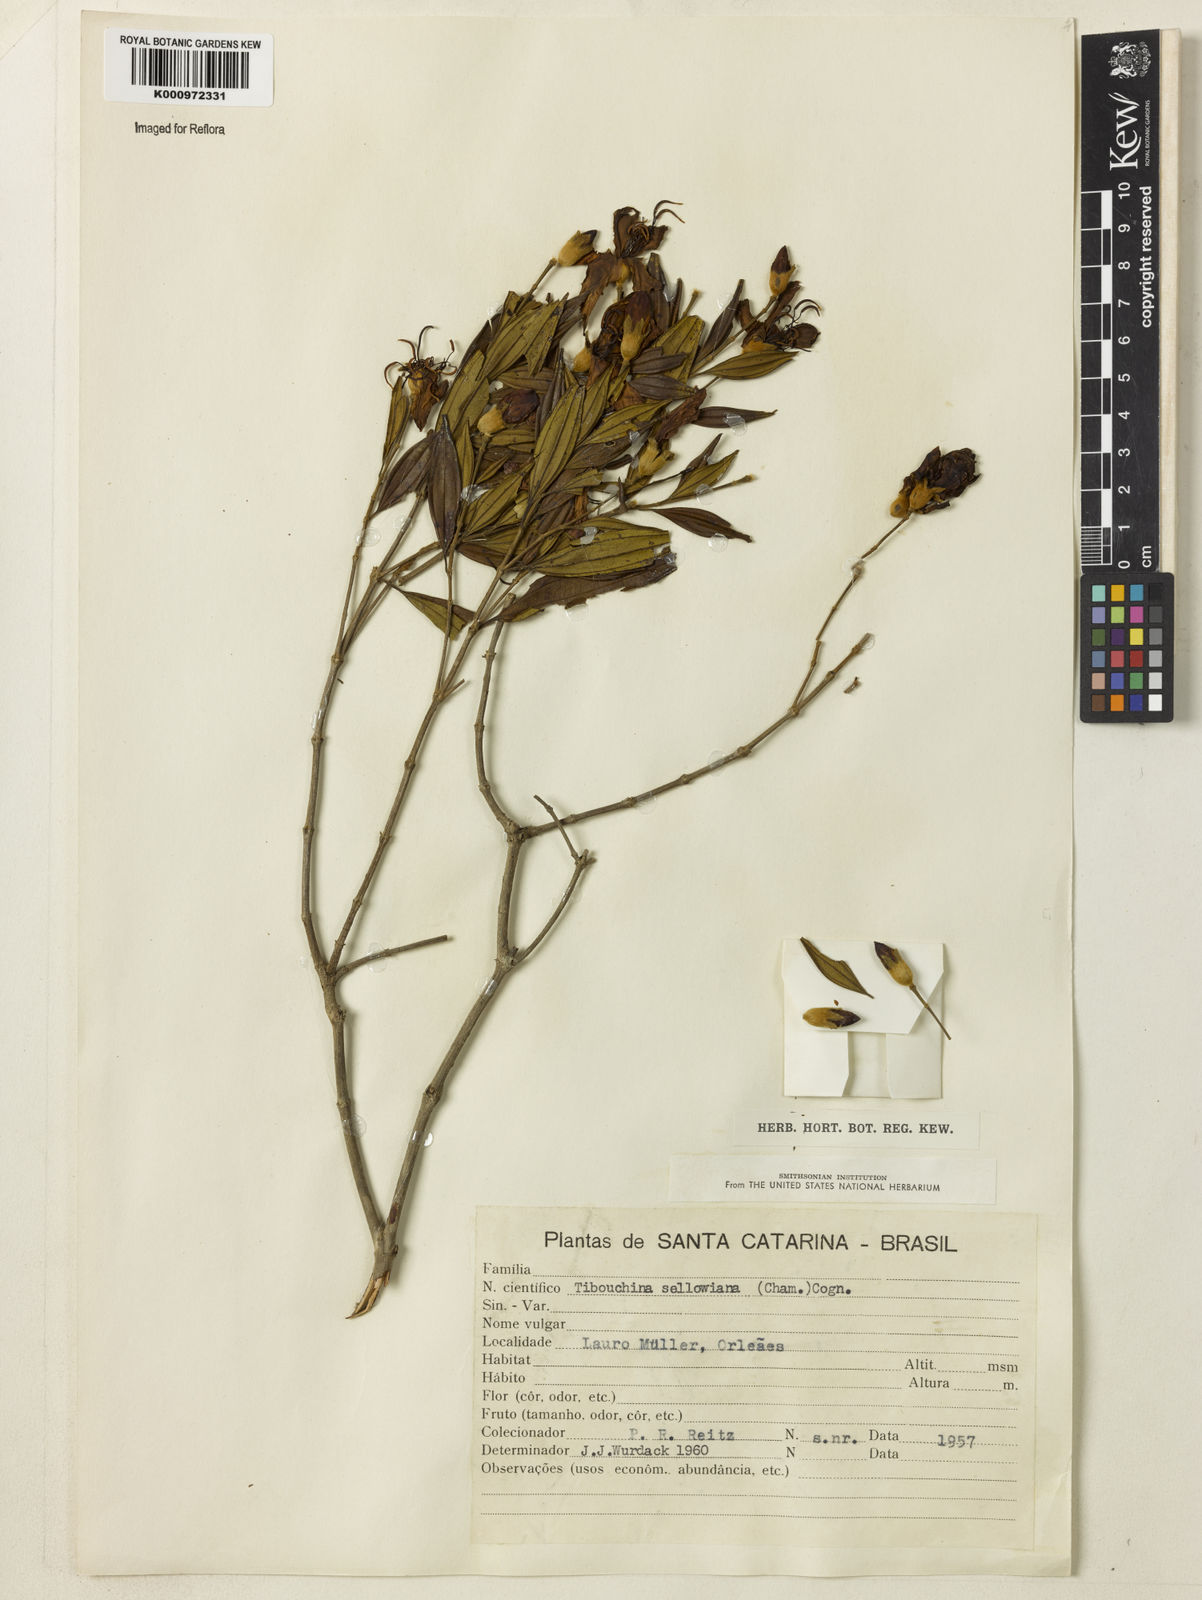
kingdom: Plantae
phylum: Tracheophyta
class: Magnoliopsida
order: Myrtales
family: Melastomataceae
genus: Pleroma
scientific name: Pleroma sellowianum
